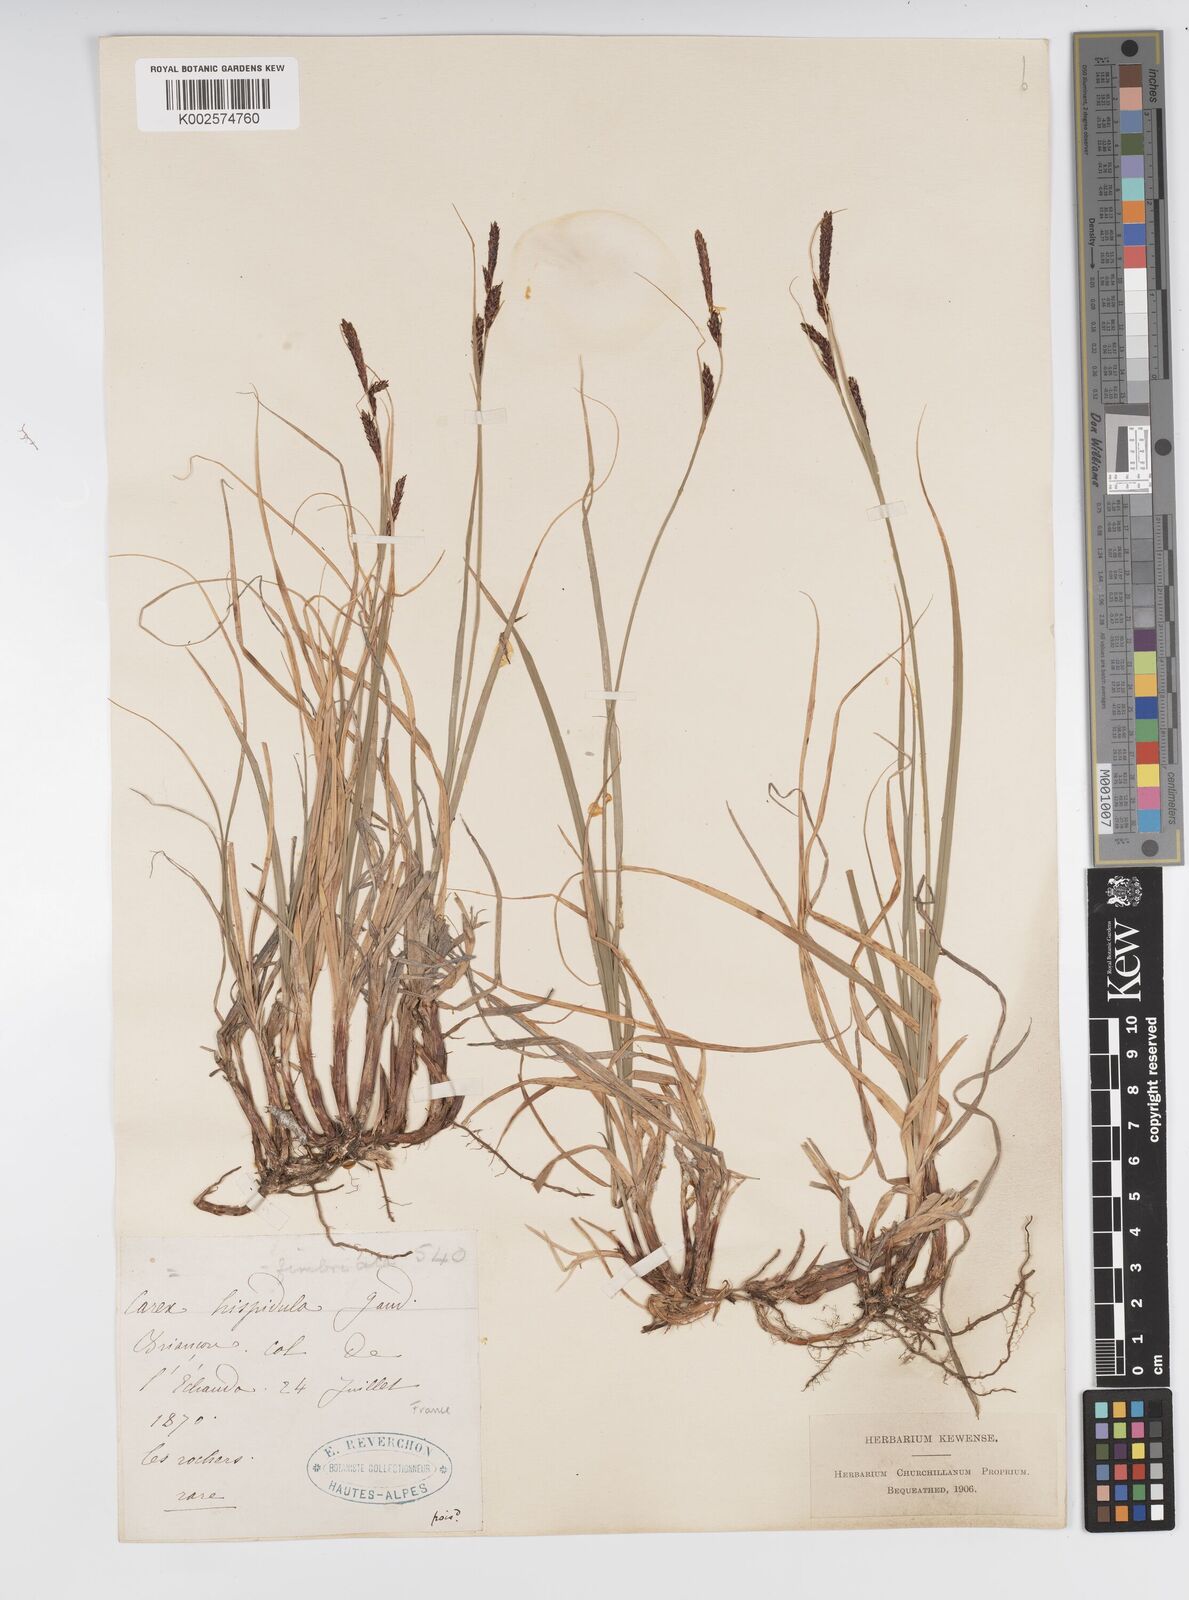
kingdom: Plantae
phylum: Tracheophyta
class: Liliopsida
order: Poales
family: Cyperaceae
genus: Carex
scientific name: Carex fimbriata
